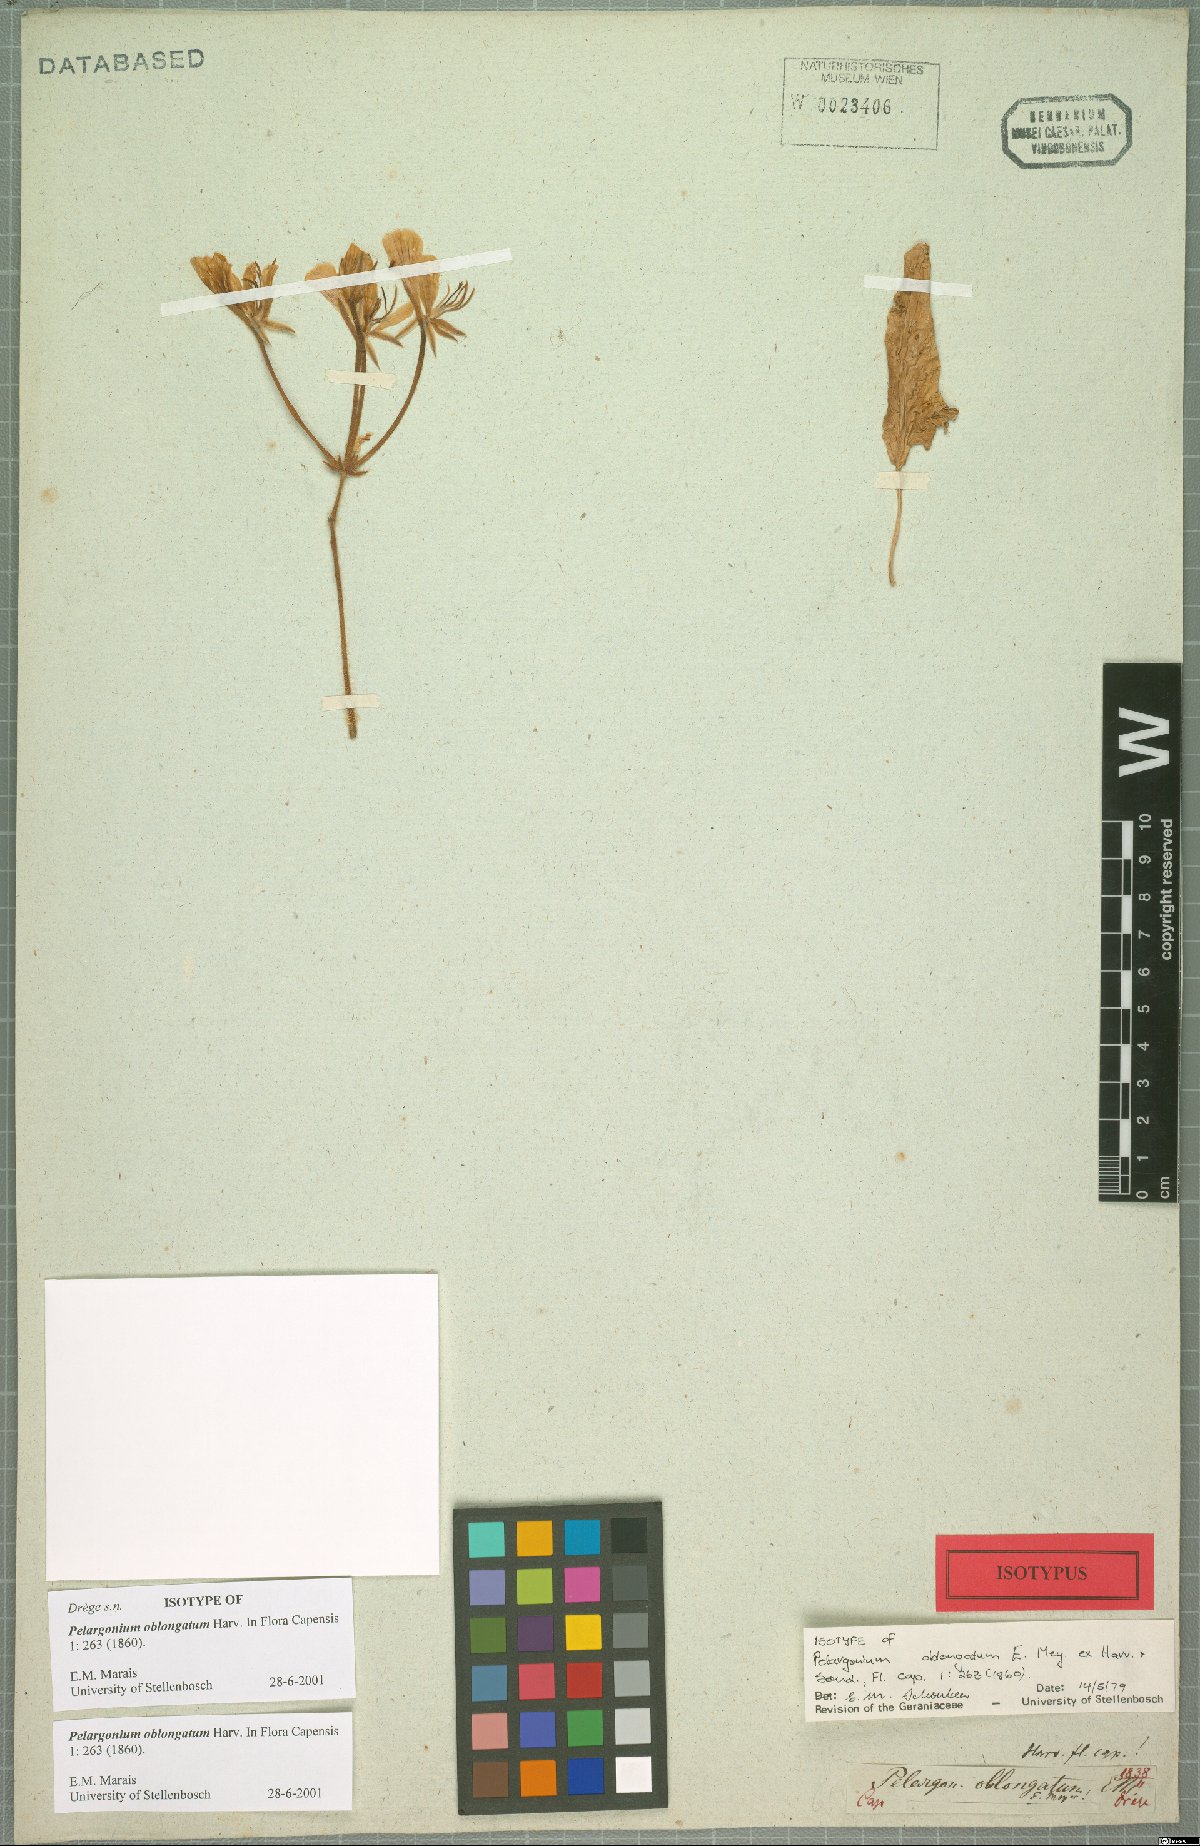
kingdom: Plantae
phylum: Tracheophyta
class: Magnoliopsida
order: Geraniales
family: Geraniaceae
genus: Pelargonium
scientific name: Pelargonium oblongatum
